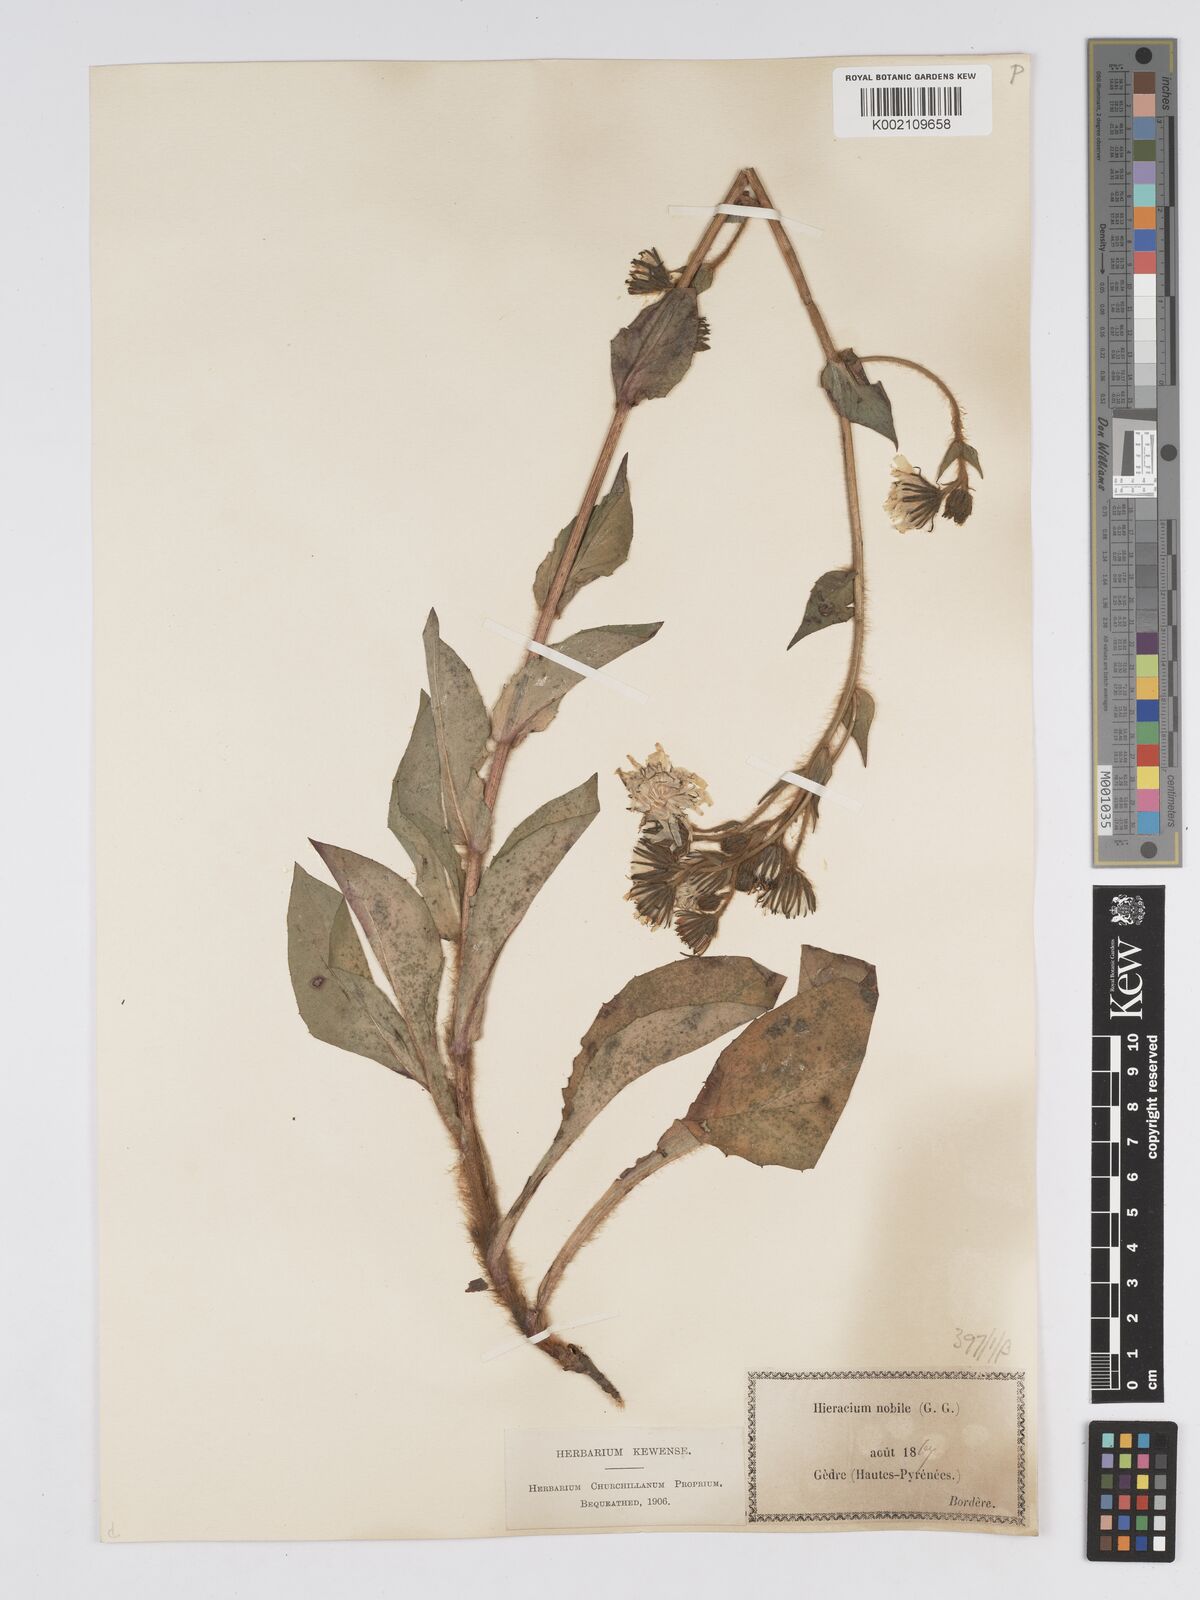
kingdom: Plantae
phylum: Tracheophyta
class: Magnoliopsida
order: Asterales
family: Asteraceae
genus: Hieracium
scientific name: Hieracium nobile
